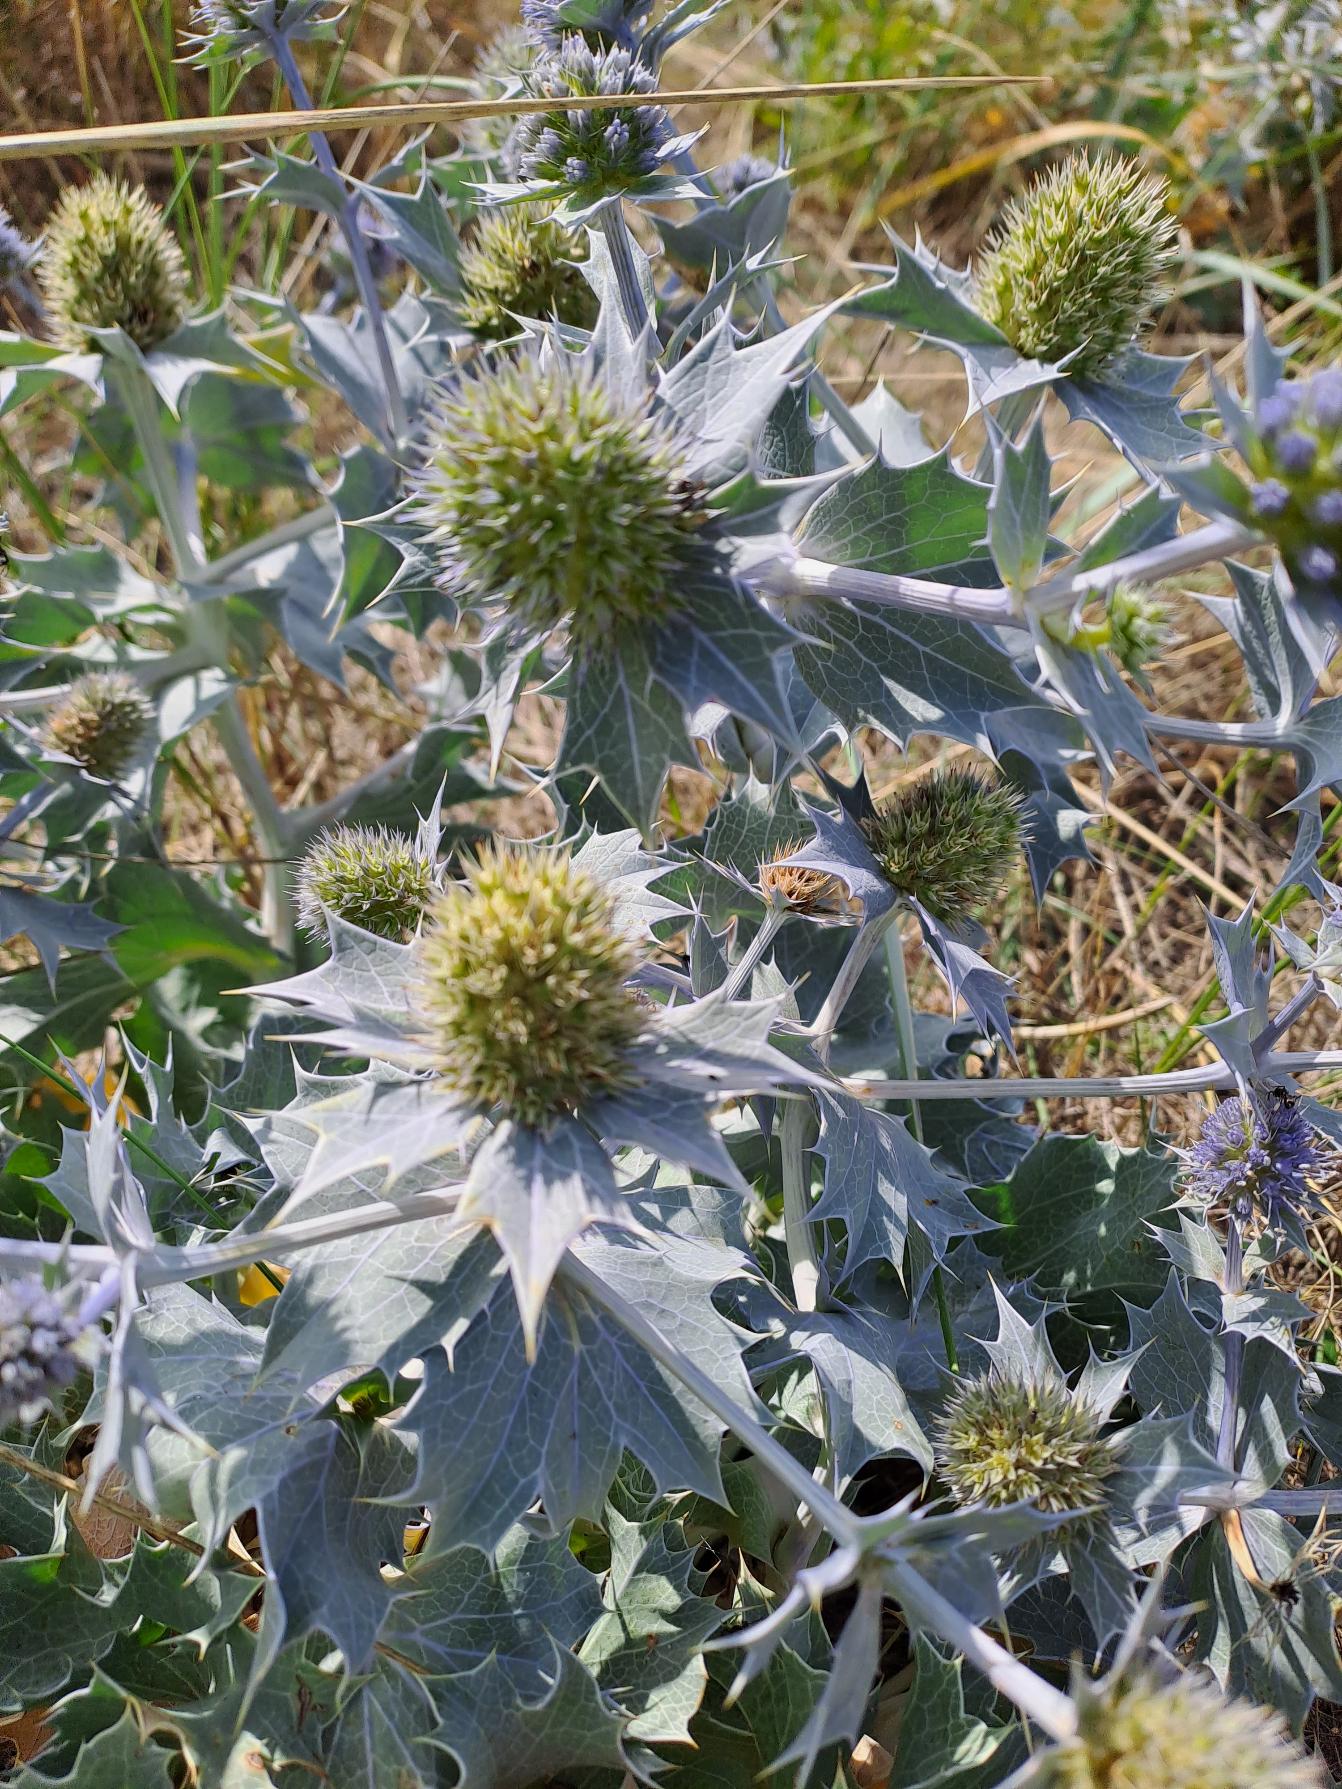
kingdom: Plantae
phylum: Tracheophyta
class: Magnoliopsida
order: Apiales
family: Apiaceae
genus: Eryngium
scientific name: Eryngium maritimum
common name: Strand-mandstro
